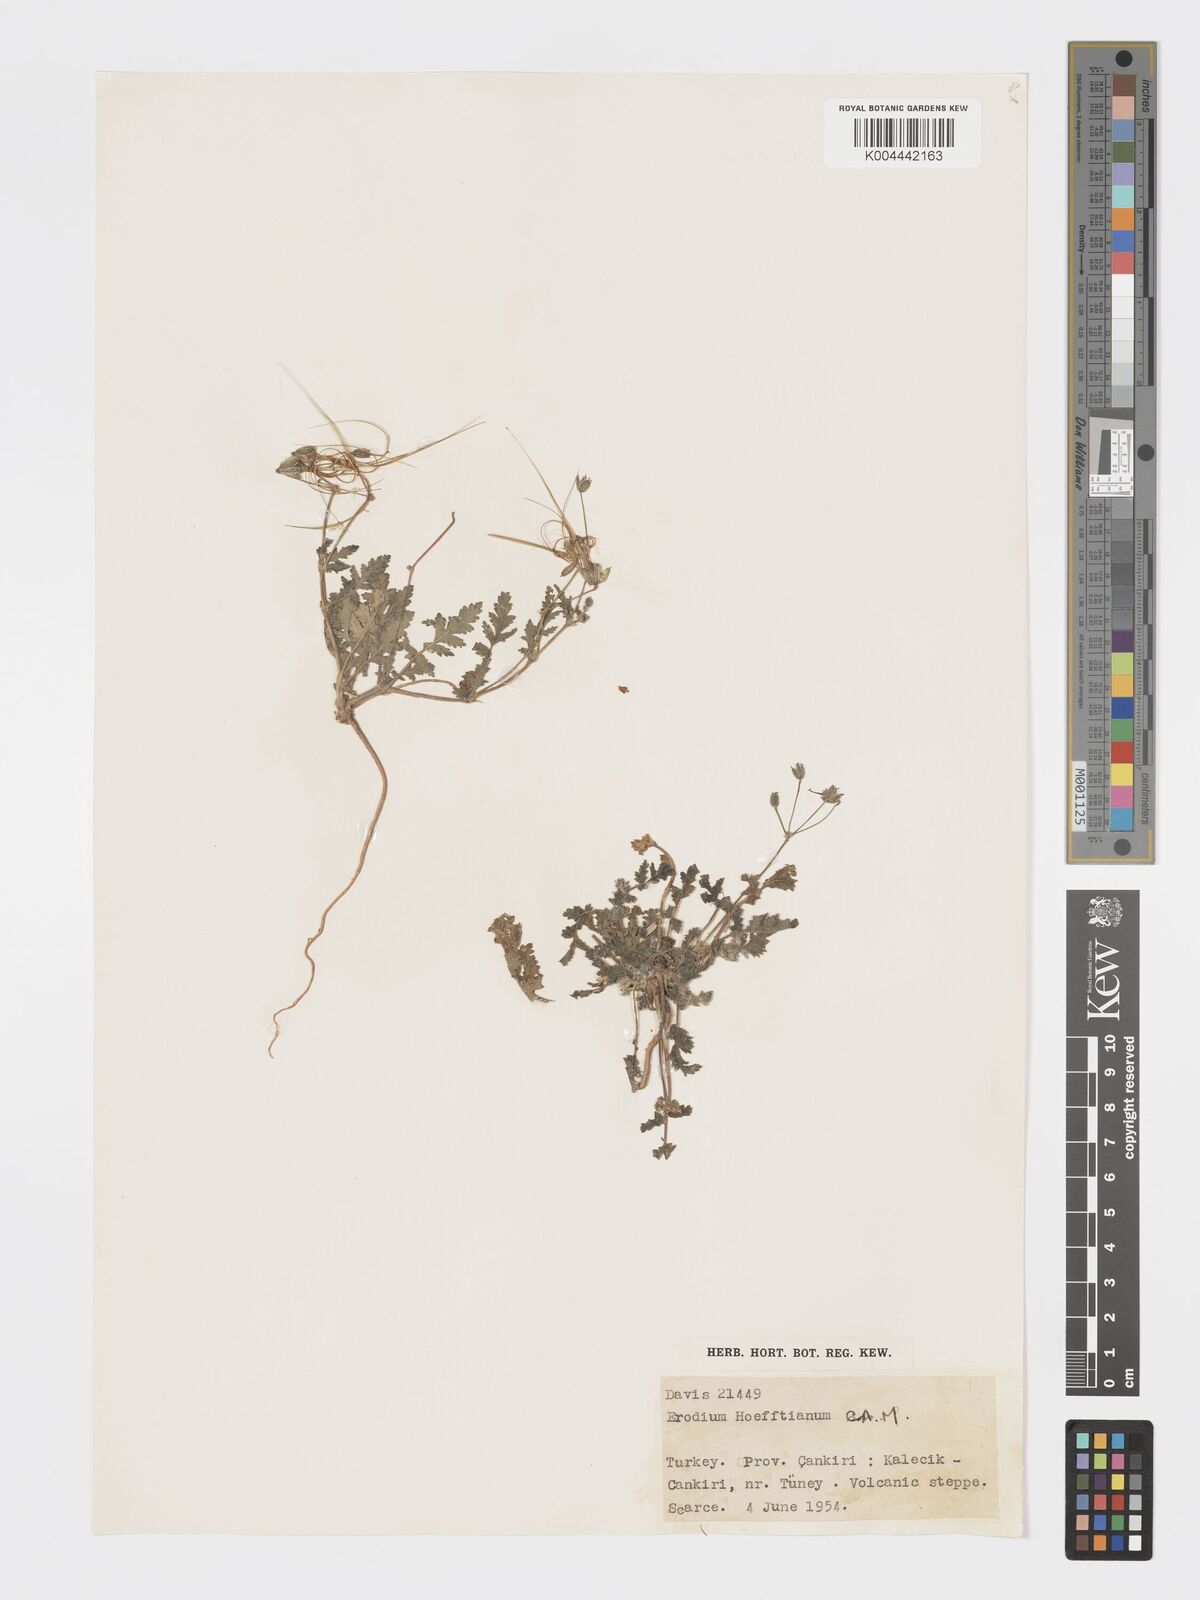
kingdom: Plantae
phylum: Tracheophyta
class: Magnoliopsida
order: Geraniales
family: Geraniaceae
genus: Erodium
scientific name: Erodium hoefftianum
